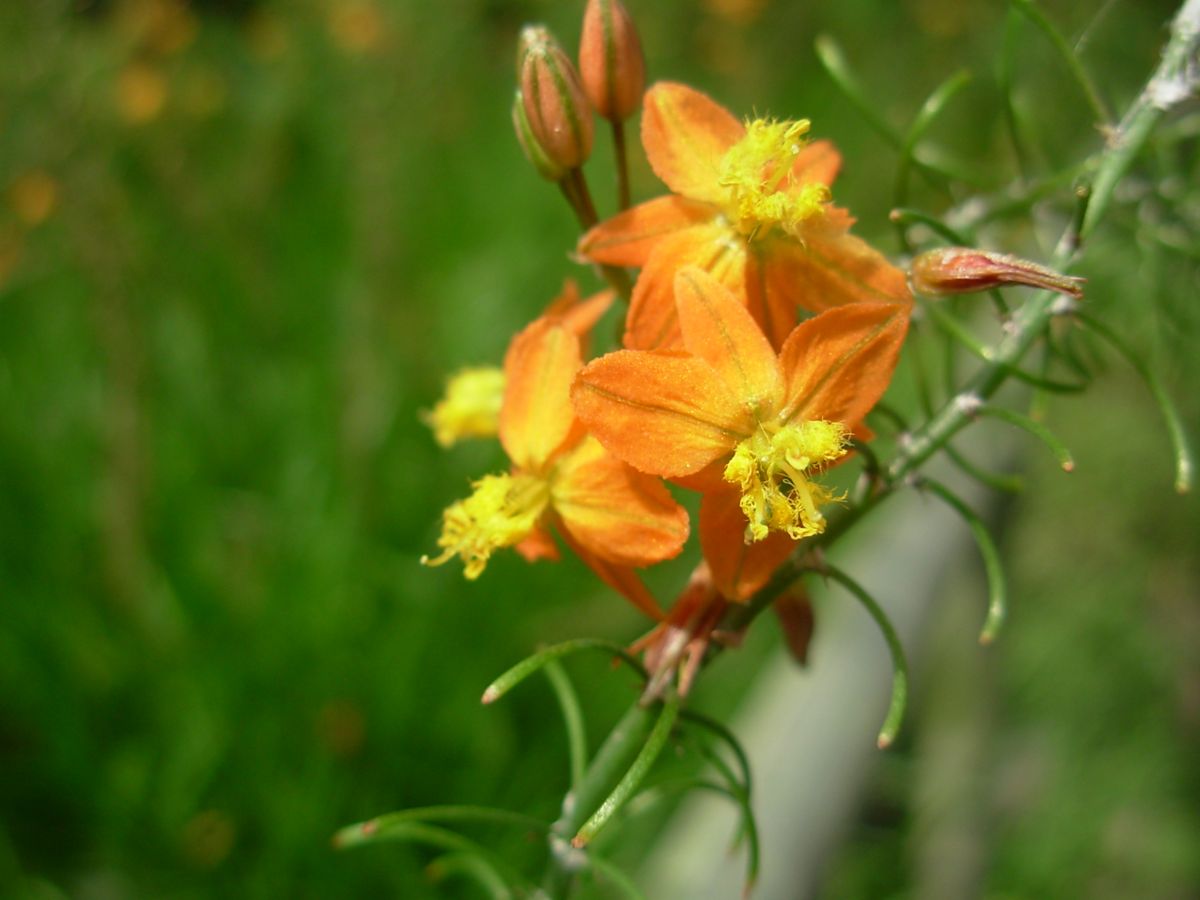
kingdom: Plantae
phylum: Tracheophyta
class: Liliopsida
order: Asparagales
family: Asphodelaceae
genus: Bulbine
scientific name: Bulbine frutescens
